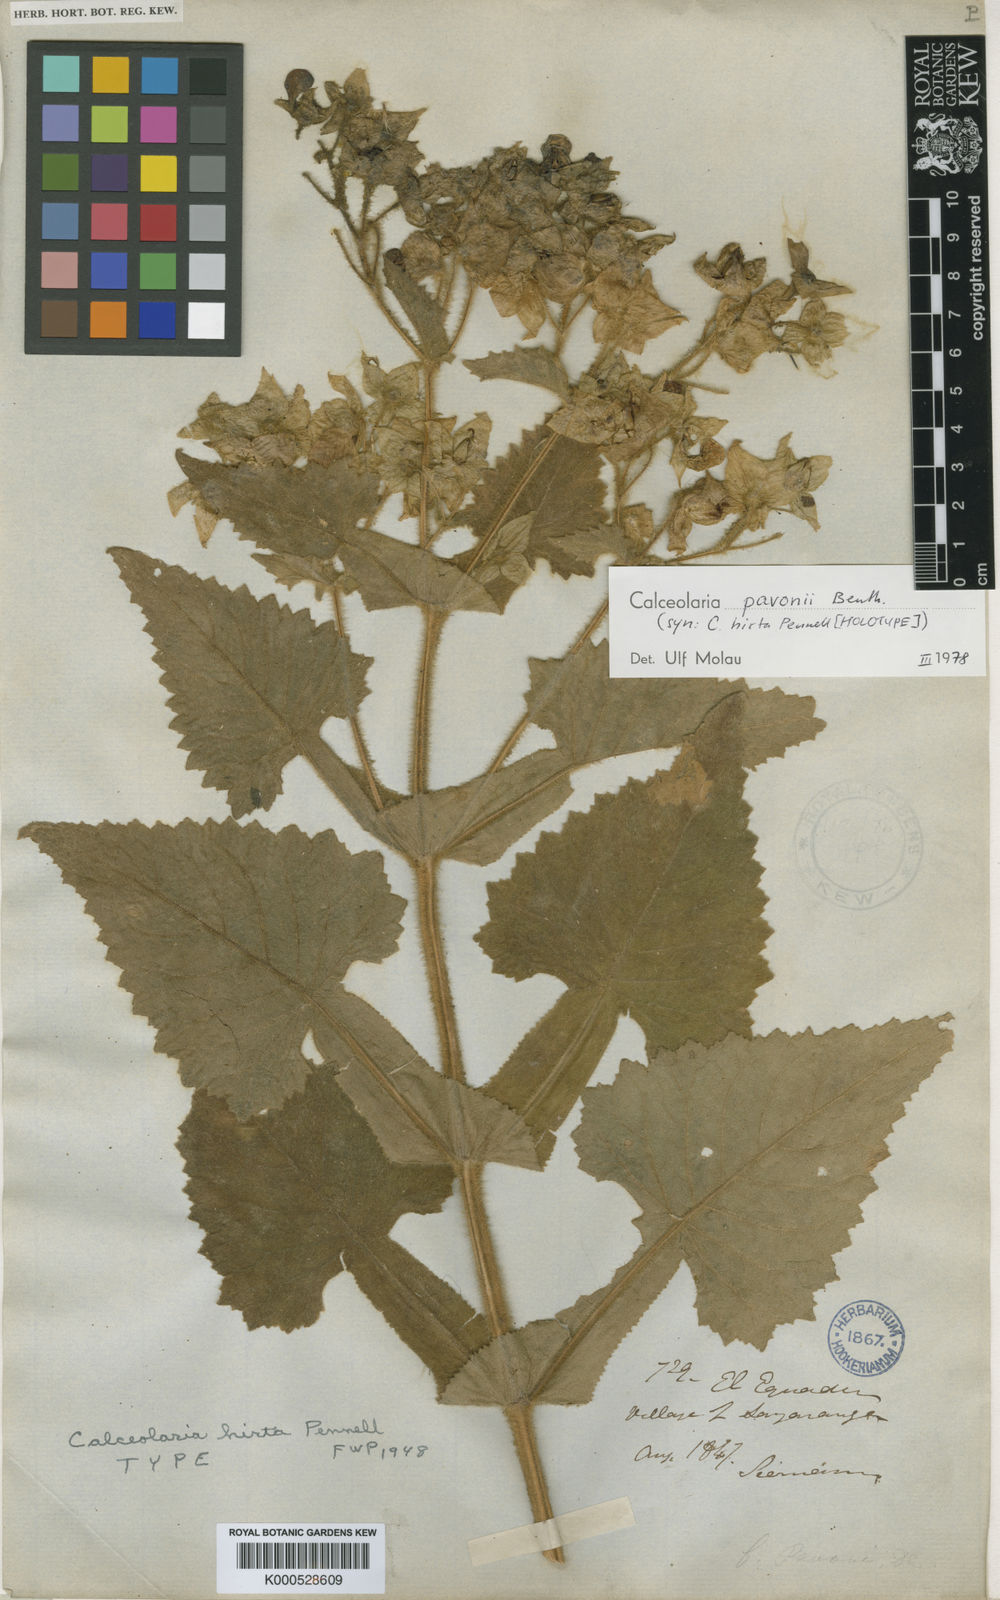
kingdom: Plantae
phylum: Tracheophyta
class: Magnoliopsida
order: Lamiales
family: Calceolariaceae
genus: Calceolaria
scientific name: Calceolaria pavonii
